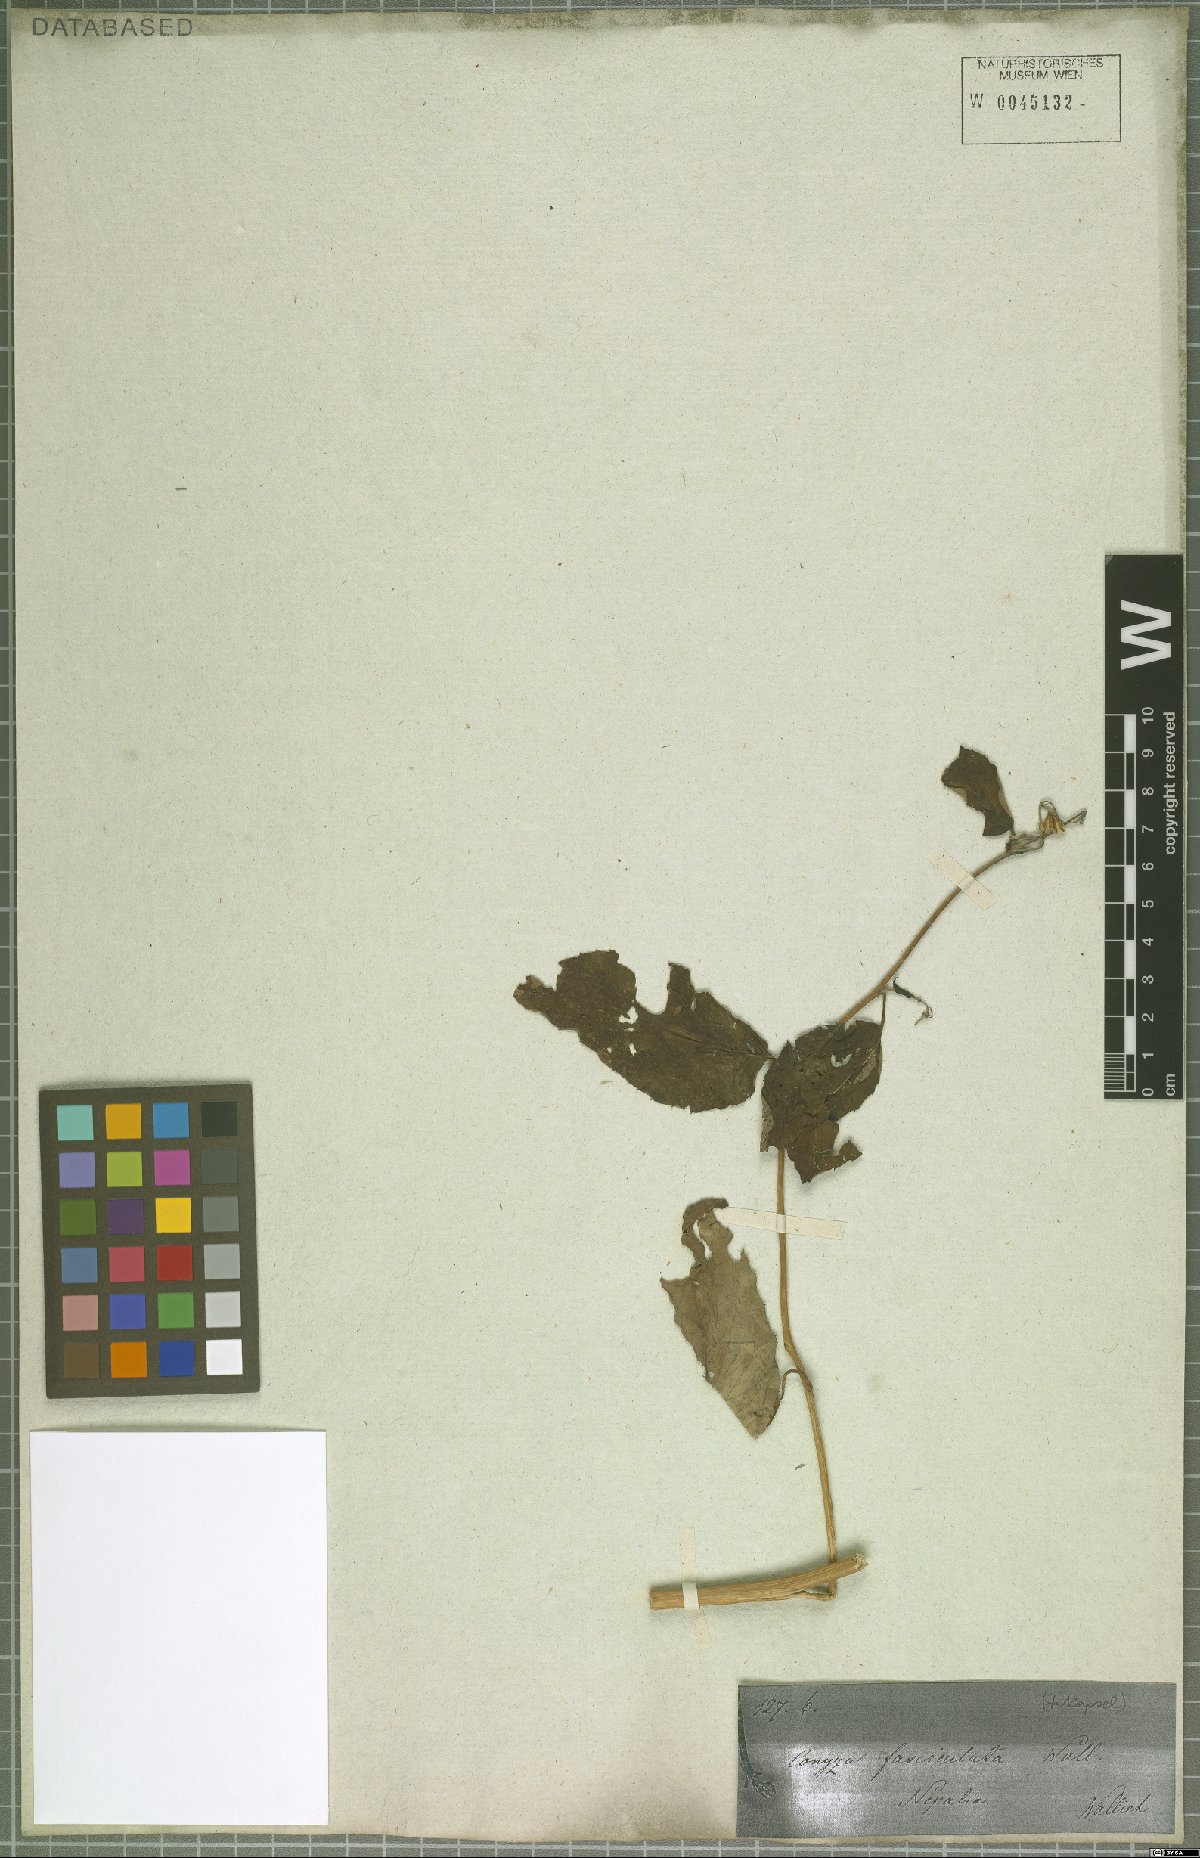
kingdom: Plantae
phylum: Tracheophyta
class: Magnoliopsida
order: Asterales
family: Asteraceae
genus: Blumea
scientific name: Blumea sessiliflora
